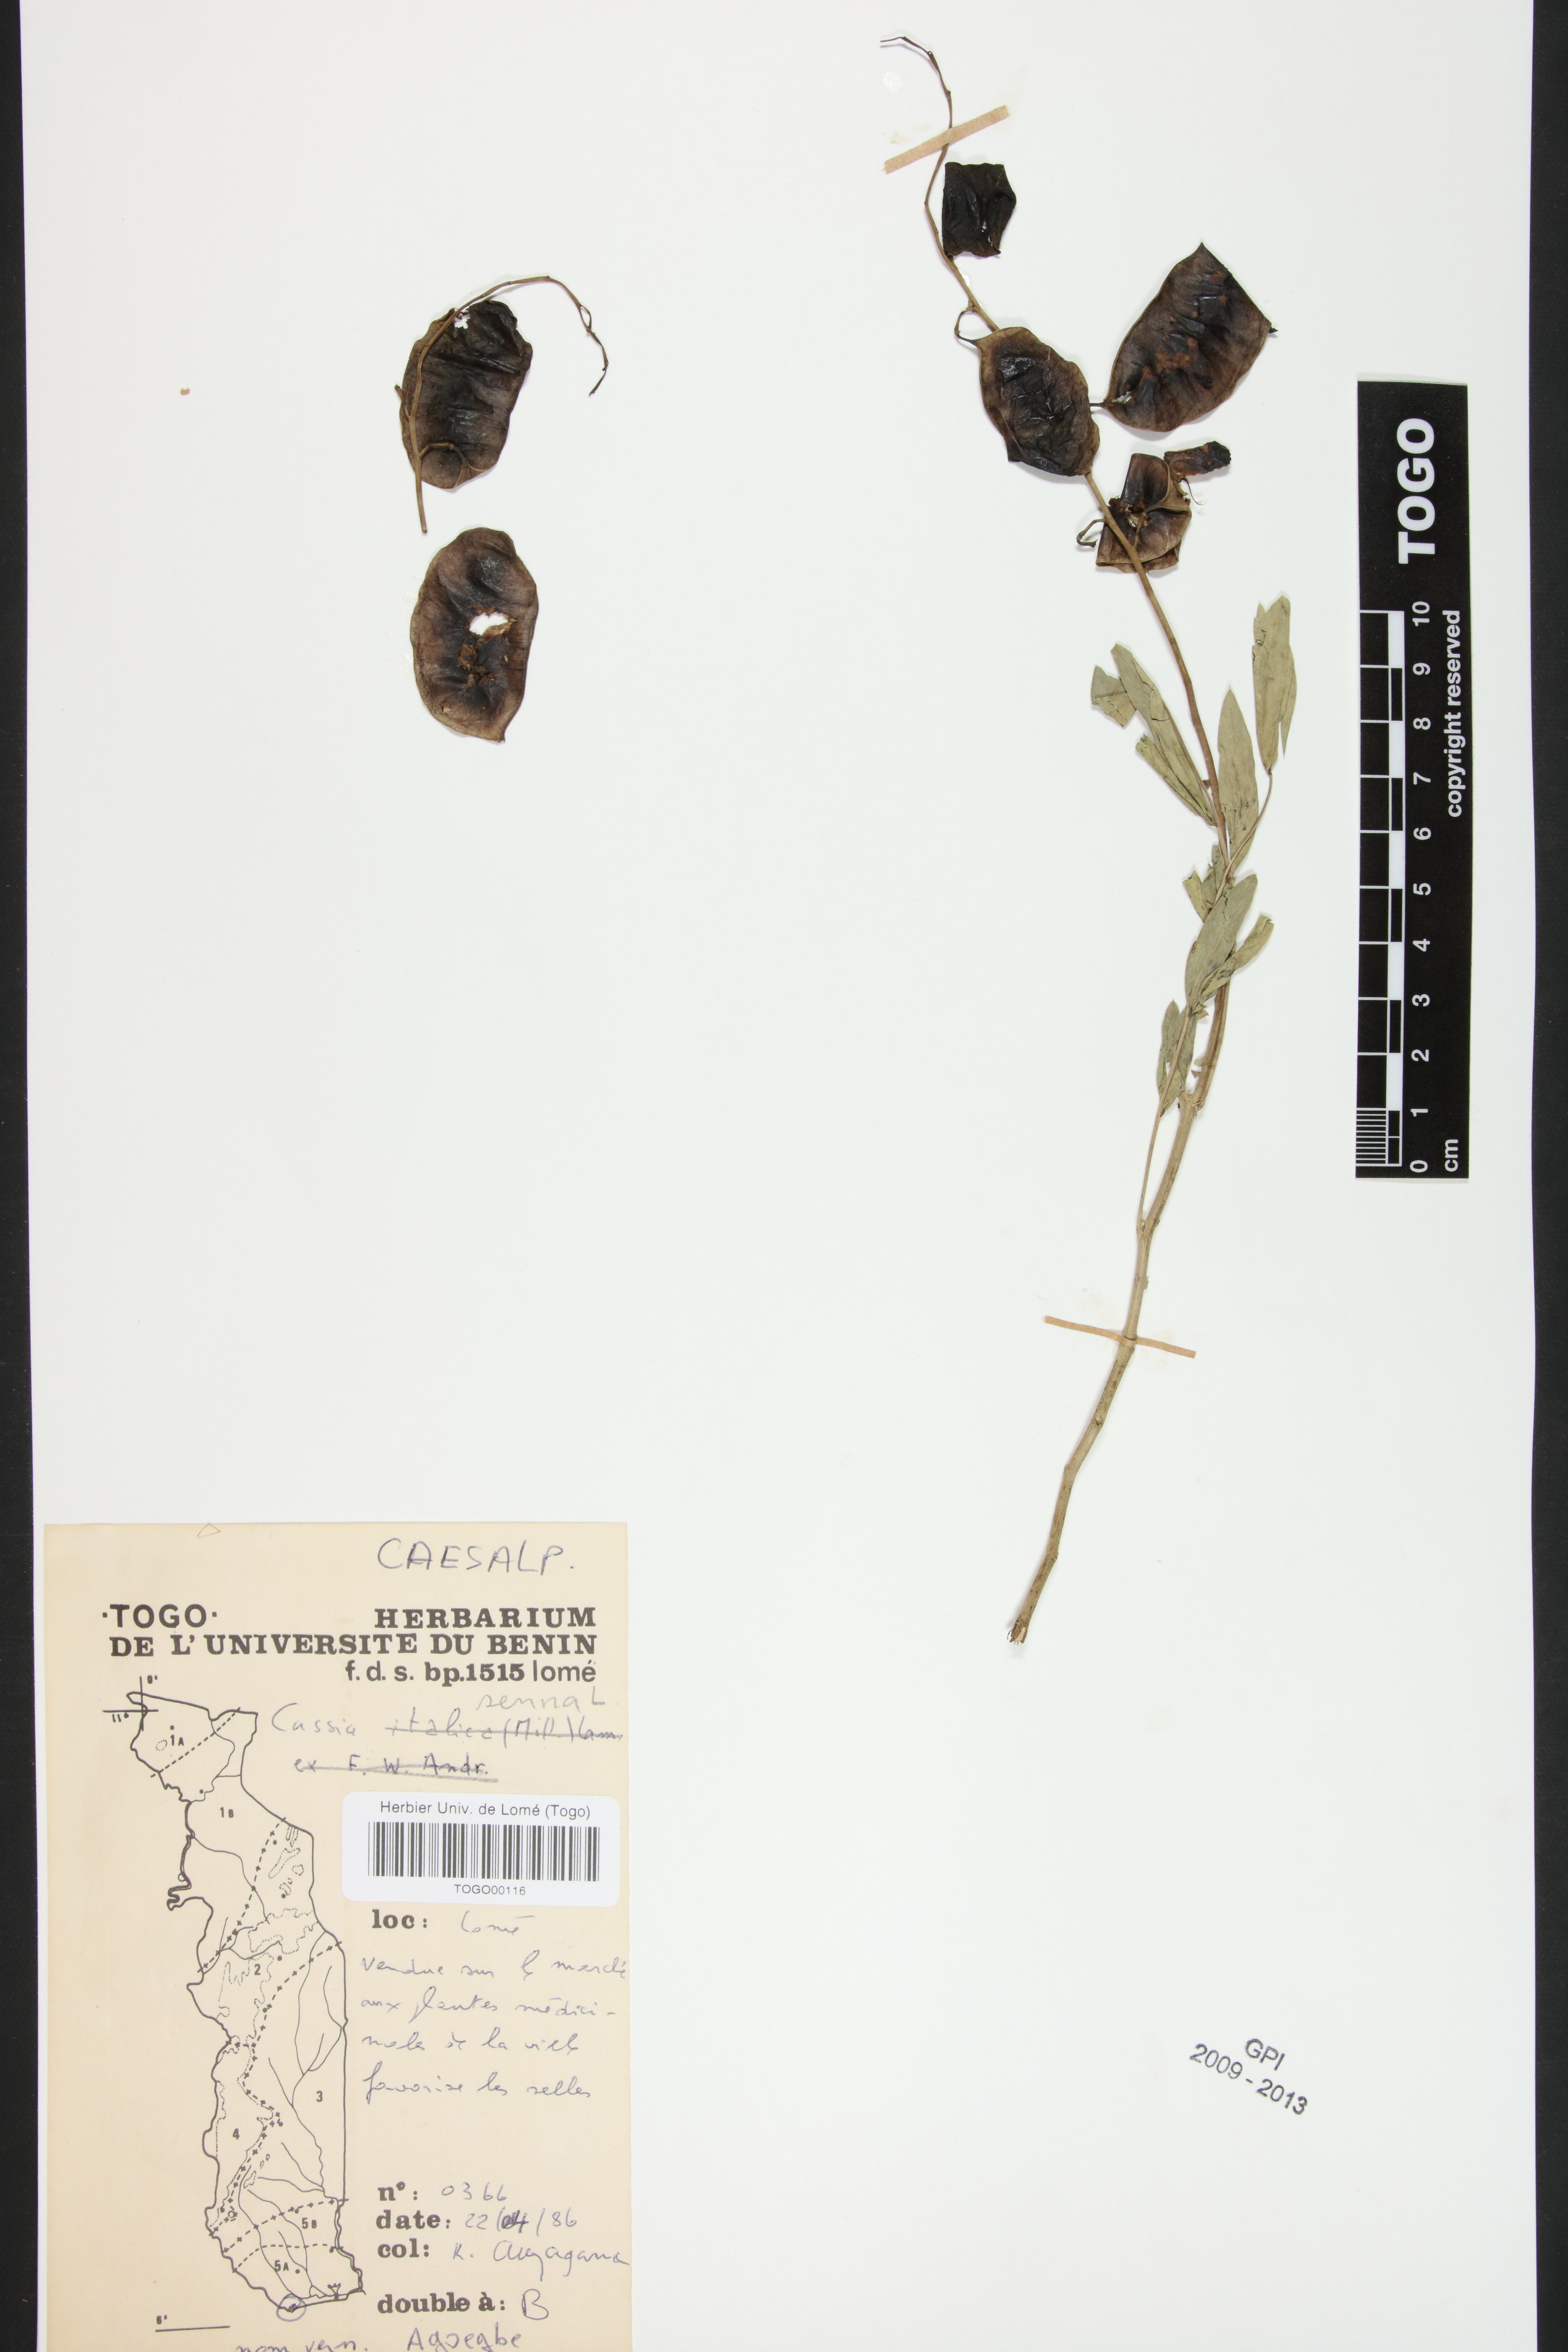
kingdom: Plantae
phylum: Tracheophyta
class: Magnoliopsida
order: Fabales
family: Fabaceae
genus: Senna
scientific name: Senna alexandrina
